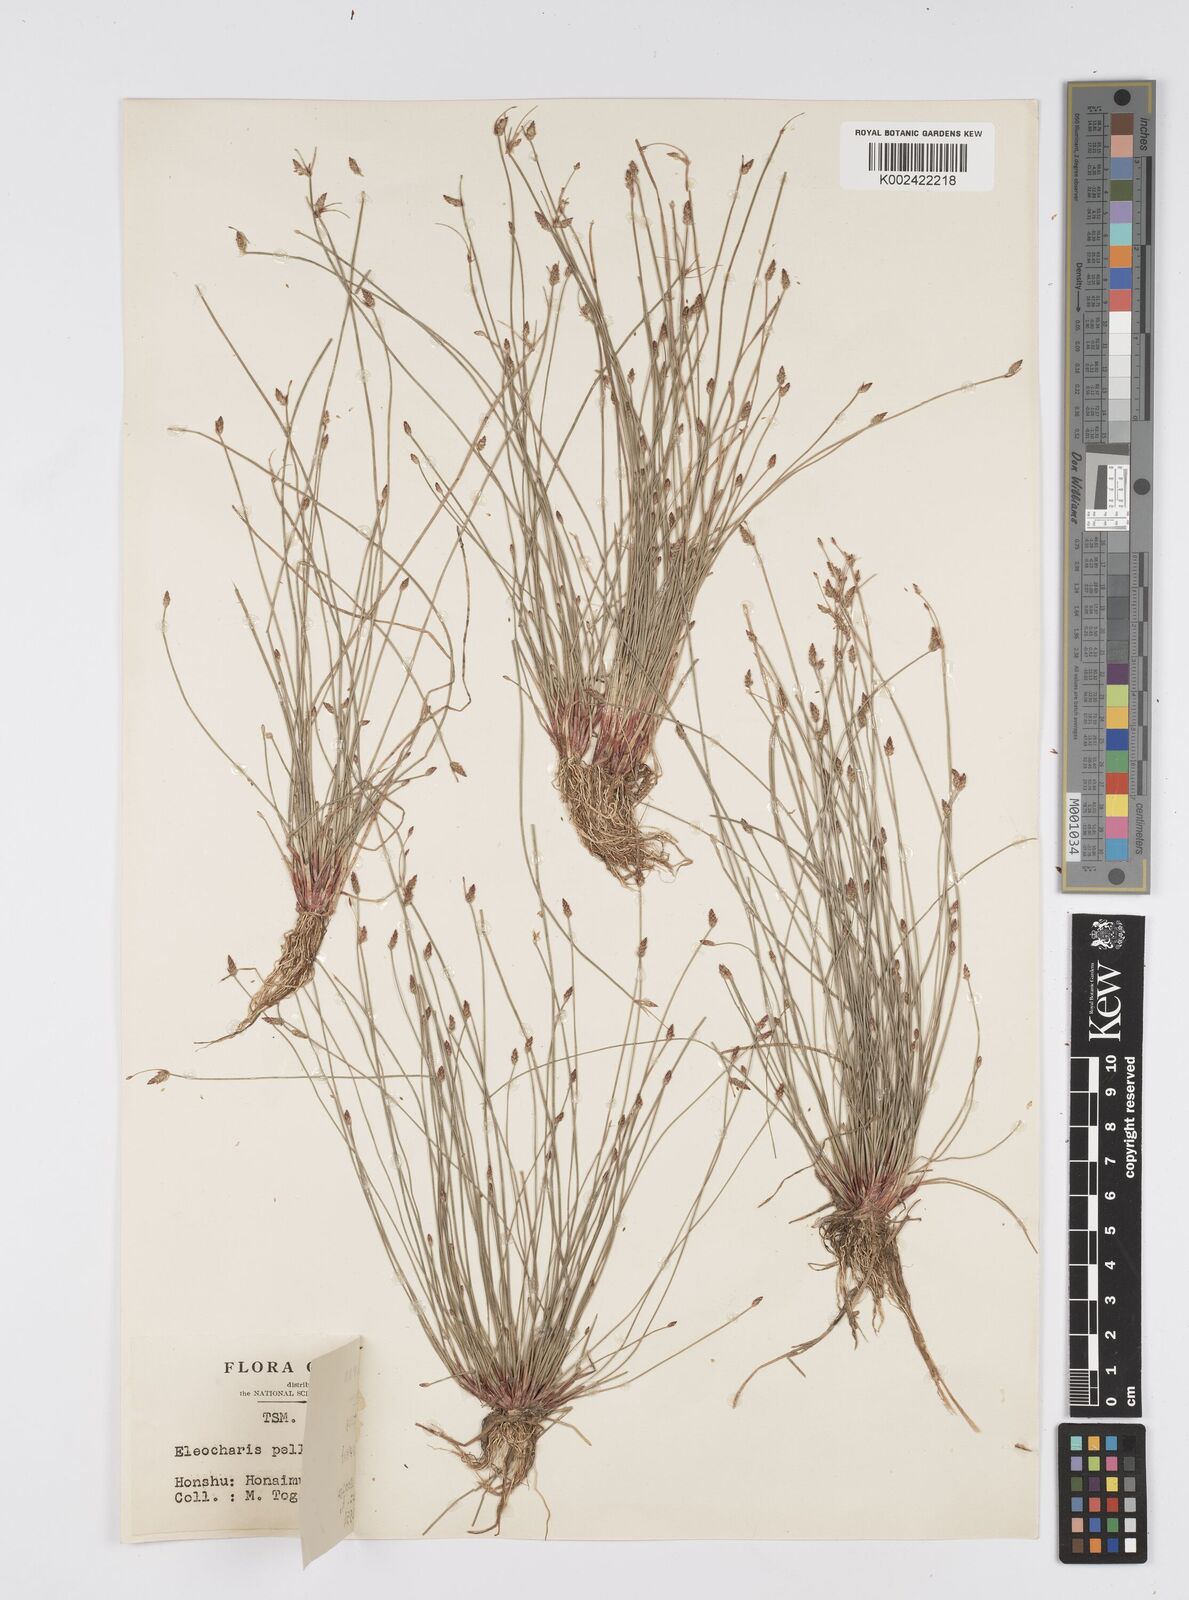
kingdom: Plantae
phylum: Tracheophyta
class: Liliopsida
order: Poales
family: Cyperaceae
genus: Eleocharis
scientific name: Eleocharis pellucida
